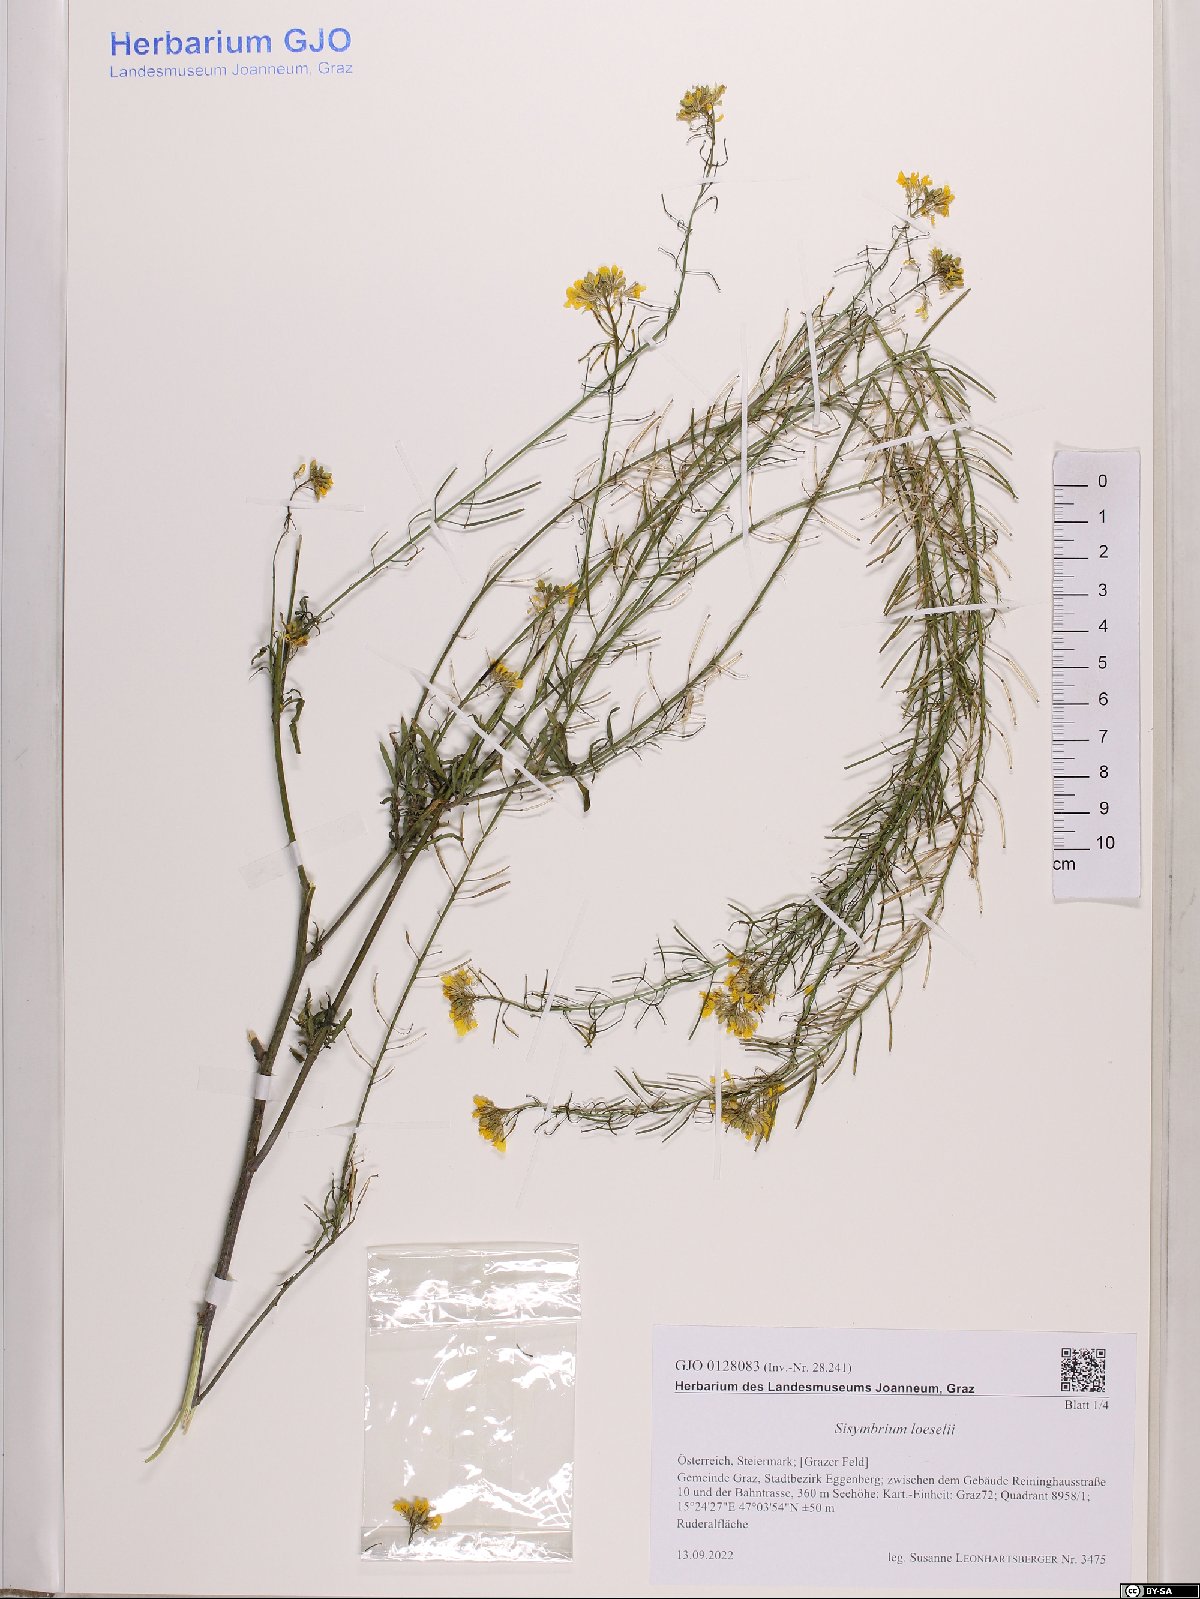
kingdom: Plantae
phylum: Tracheophyta
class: Magnoliopsida
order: Brassicales
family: Brassicaceae
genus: Sisymbrium
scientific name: Sisymbrium loeselii
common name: False london-rocket
